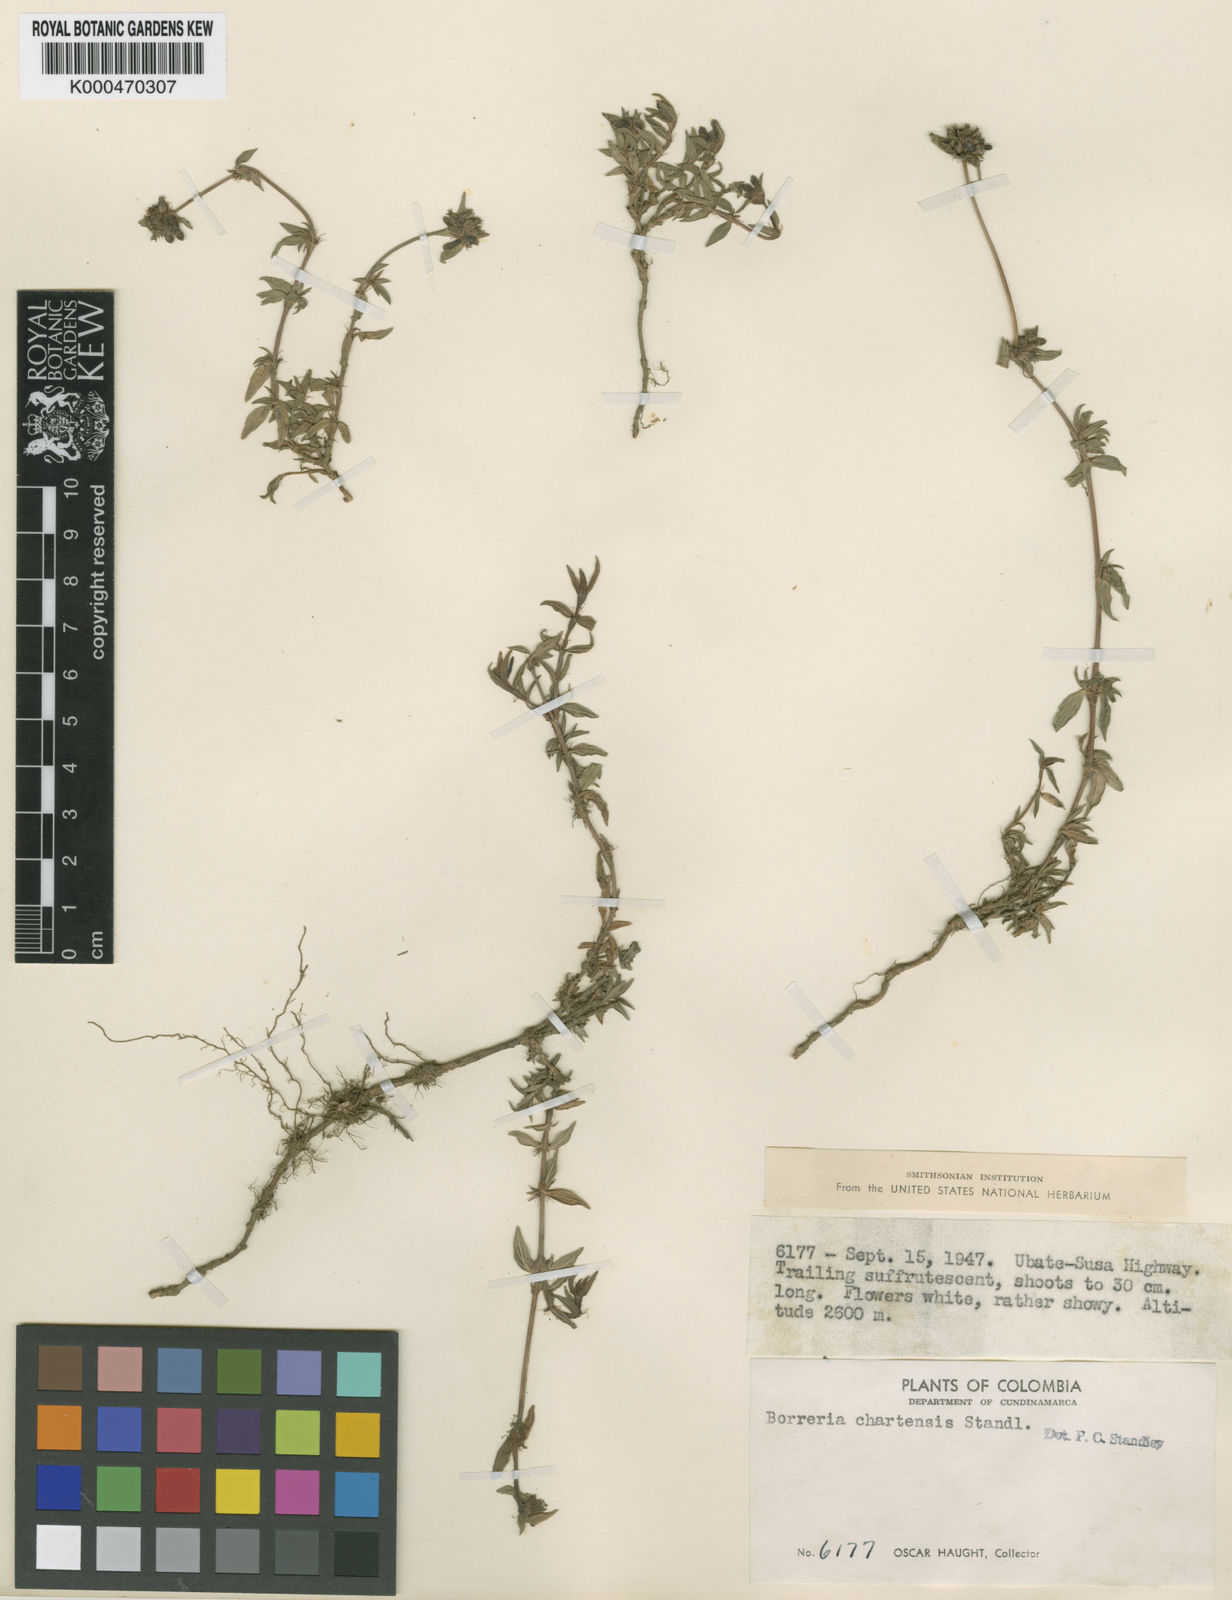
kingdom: Plantae
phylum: Tracheophyta
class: Magnoliopsida
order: Gentianales
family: Rubiaceae
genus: Spermacoce
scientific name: Spermacoce chartensis
